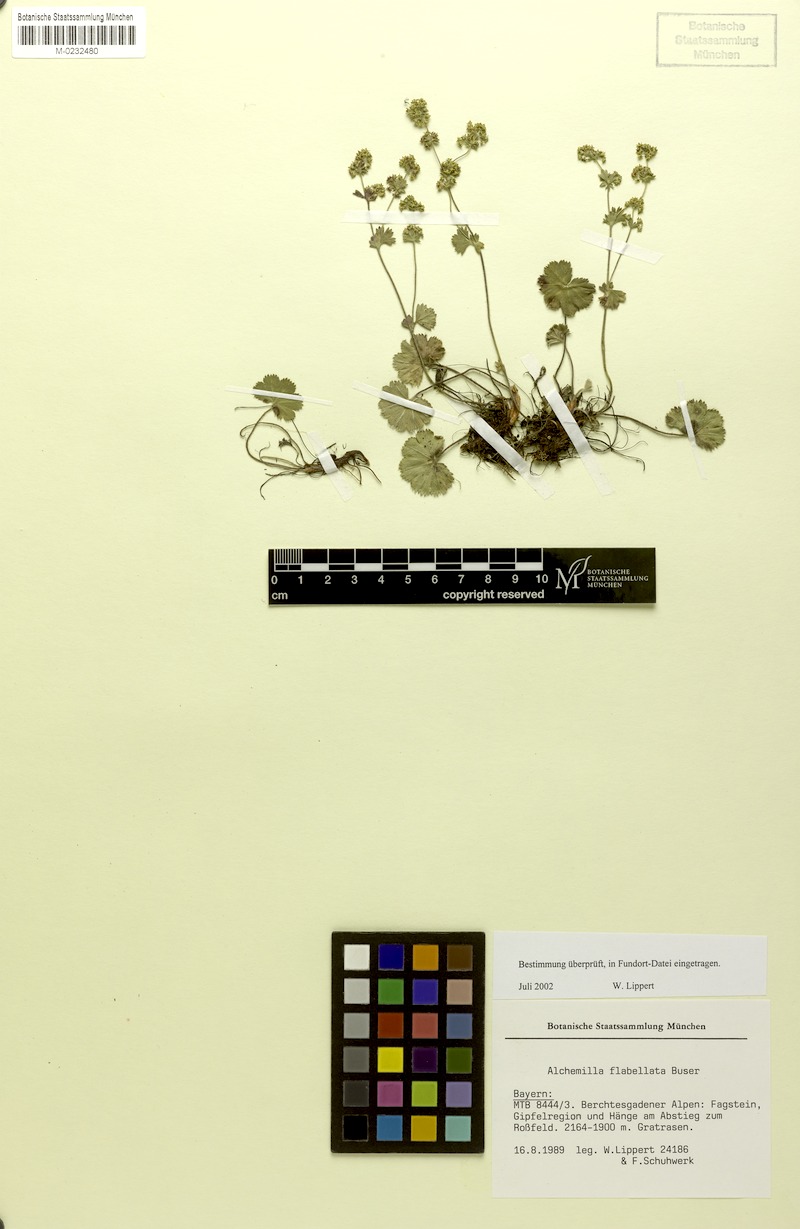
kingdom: Plantae
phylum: Tracheophyta
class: Magnoliopsida
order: Rosales
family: Rosaceae
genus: Alchemilla
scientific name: Alchemilla flabellata
